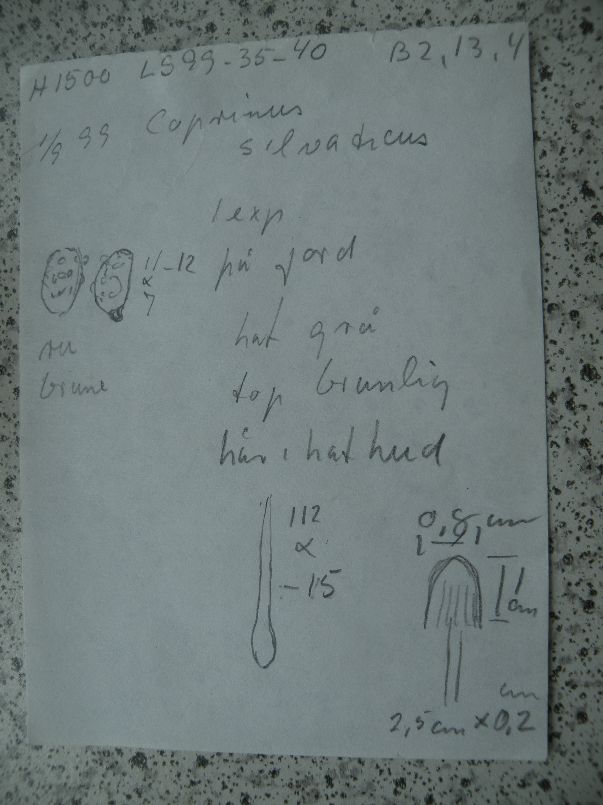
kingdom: Fungi
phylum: Basidiomycota
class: Agaricomycetes
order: Agaricales
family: Psathyrellaceae
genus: Coprinellus
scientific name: Coprinellus deliquescens
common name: rusporet blækhat
